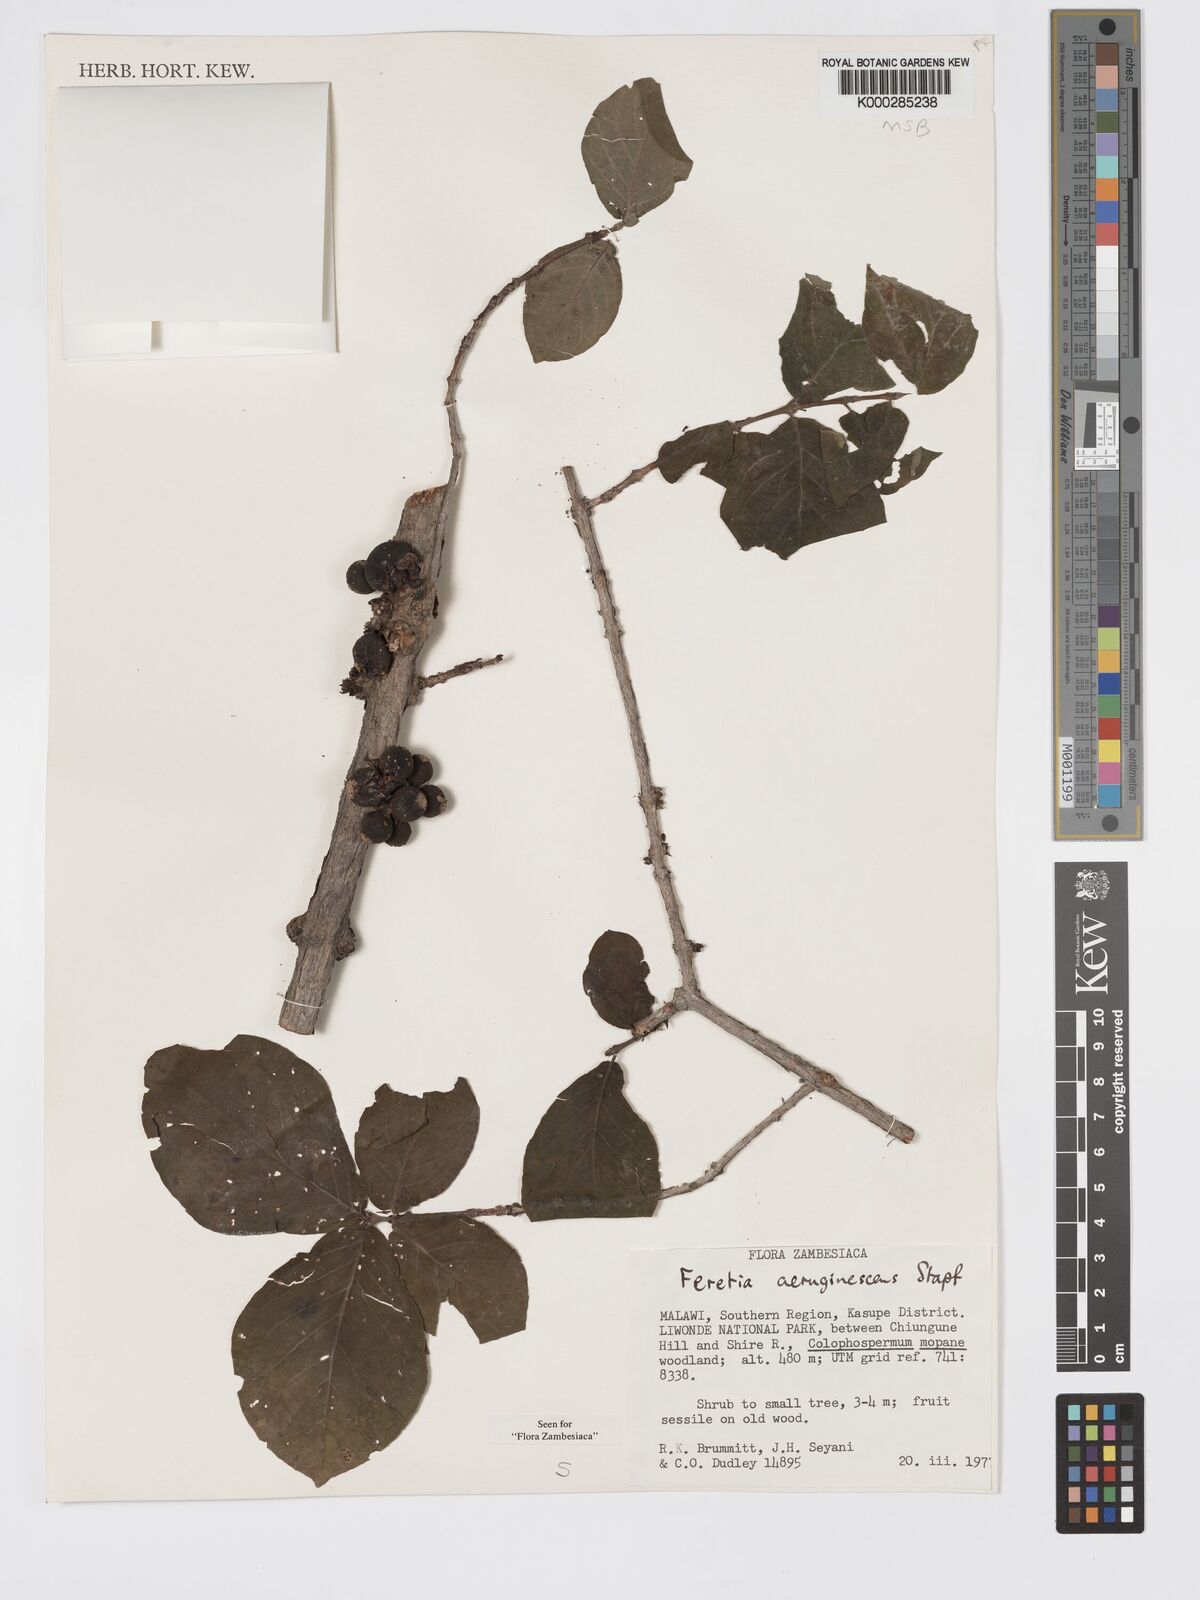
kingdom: Plantae
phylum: Tracheophyta
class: Magnoliopsida
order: Gentianales
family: Rubiaceae
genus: Feretia
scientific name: Feretia aeruginescens
